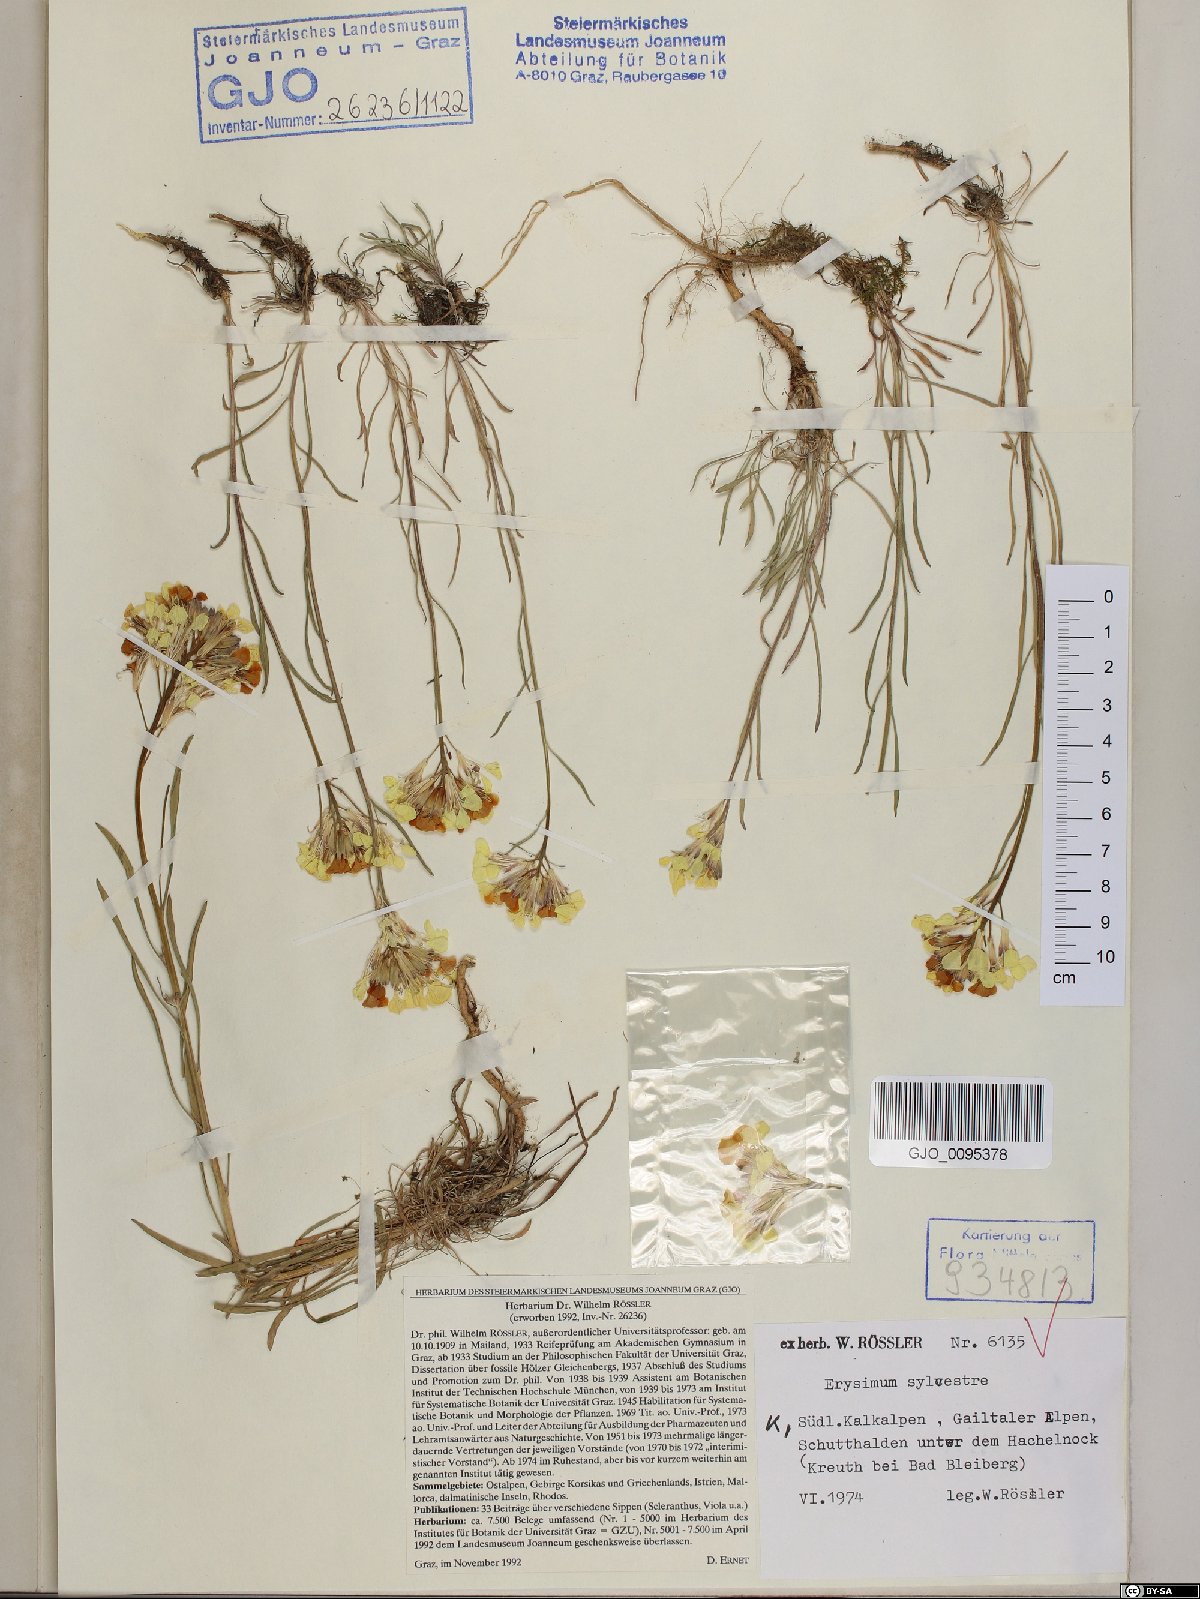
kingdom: Plantae
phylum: Tracheophyta
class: Magnoliopsida
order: Brassicales
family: Brassicaceae
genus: Erysimum
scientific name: Erysimum sylvestre
